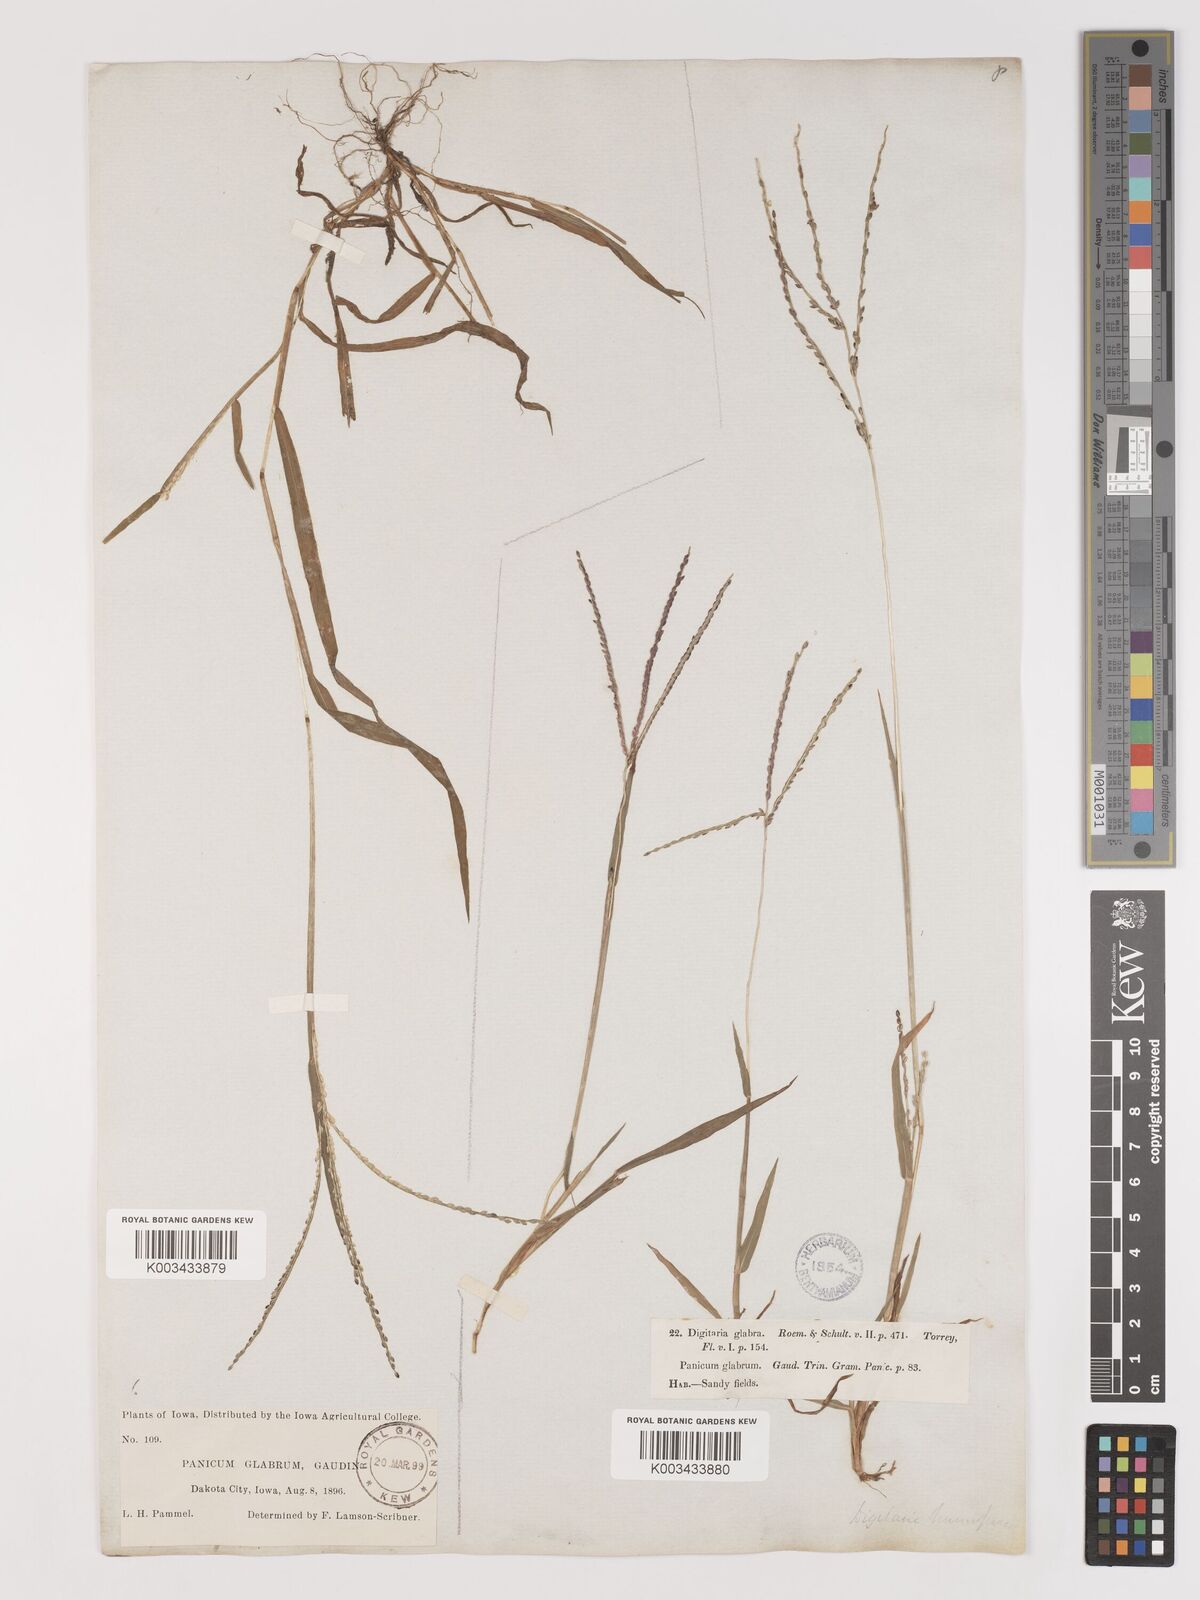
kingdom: Plantae
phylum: Tracheophyta
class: Liliopsida
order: Poales
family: Poaceae
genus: Digitaria
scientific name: Digitaria ischaemum
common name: Smooth crabgrass
